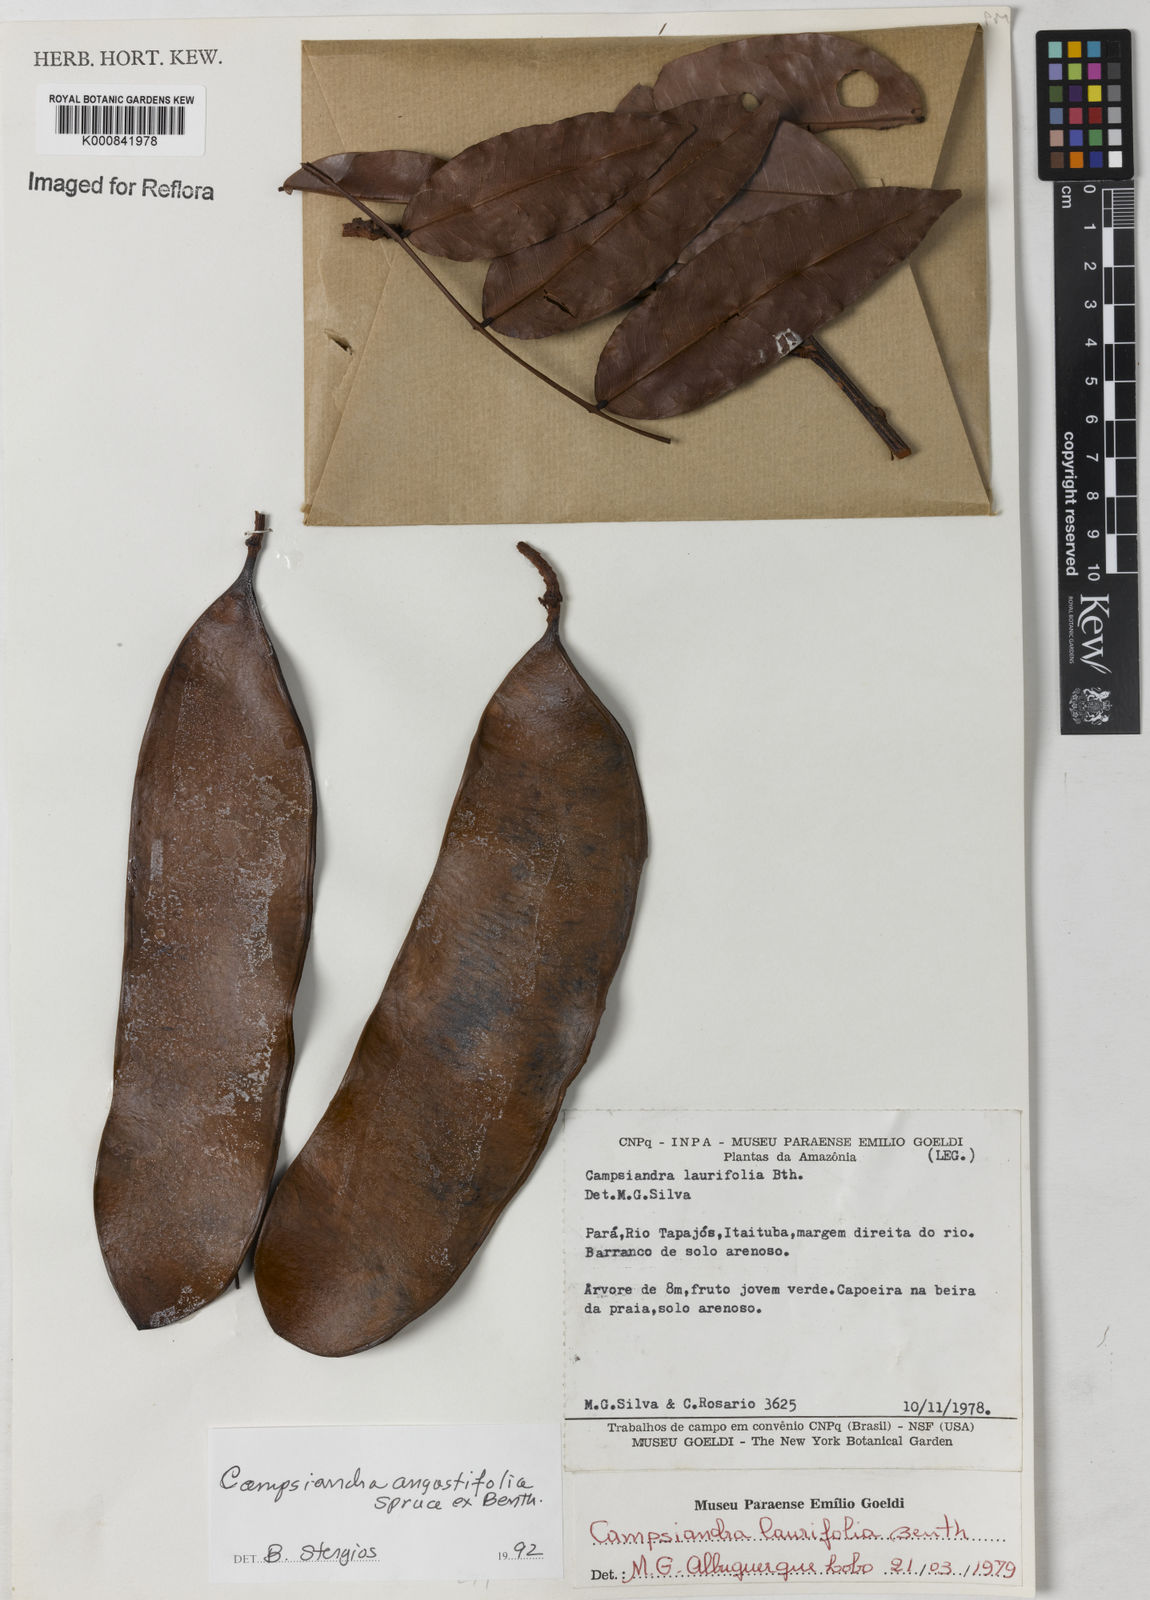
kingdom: Plantae
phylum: Tracheophyta
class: Magnoliopsida
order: Fabales
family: Fabaceae
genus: Campsiandra
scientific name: Campsiandra
